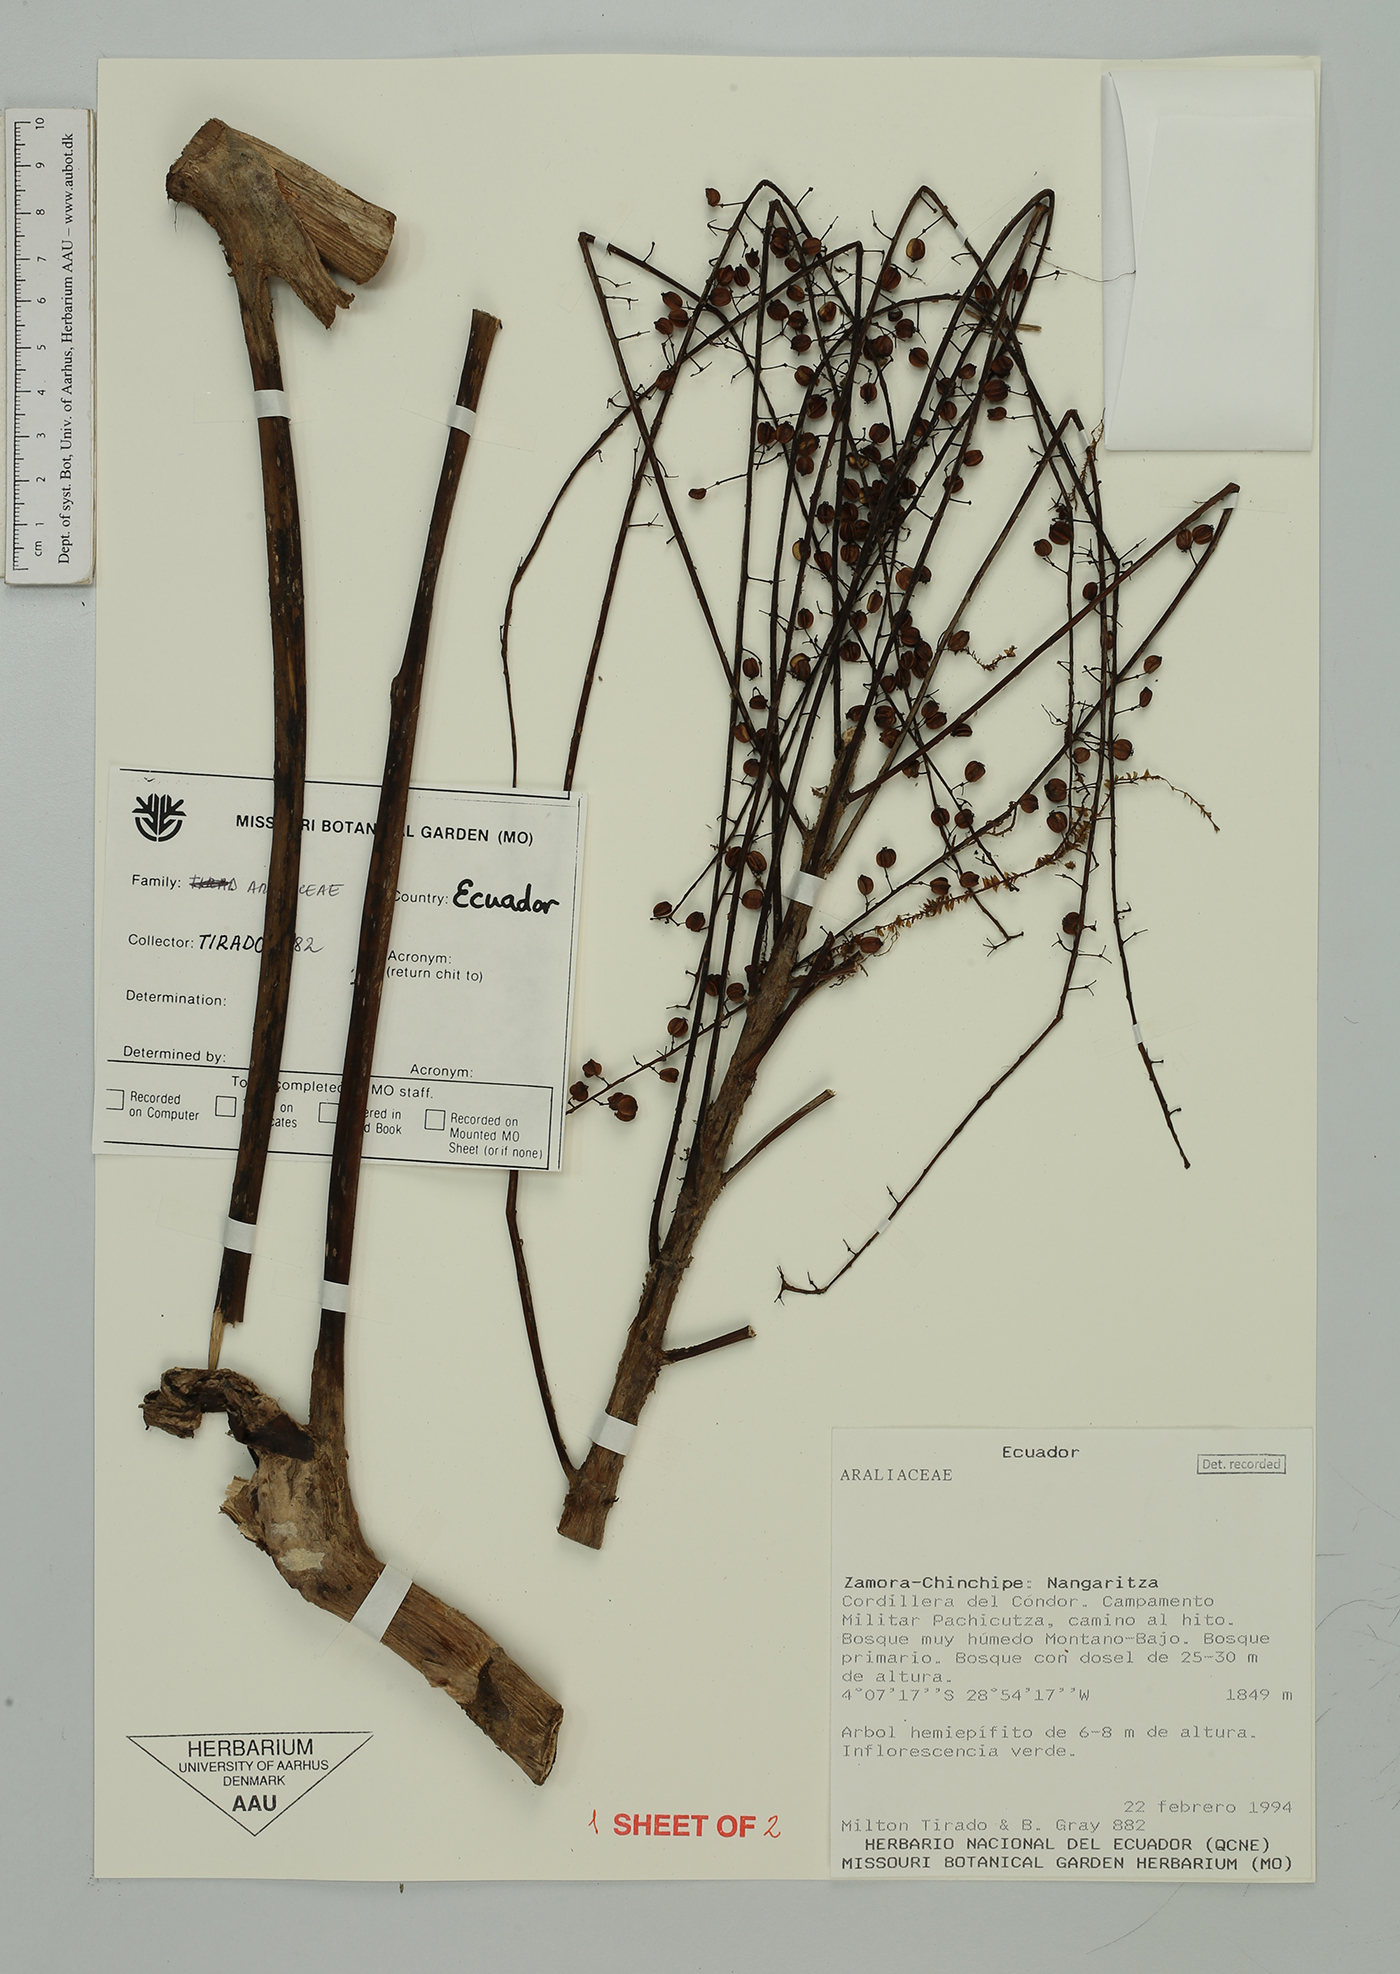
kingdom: Plantae
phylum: Tracheophyta
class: Magnoliopsida
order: Apiales
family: Araliaceae
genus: Sciodaphyllum
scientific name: Sciodaphyllum
